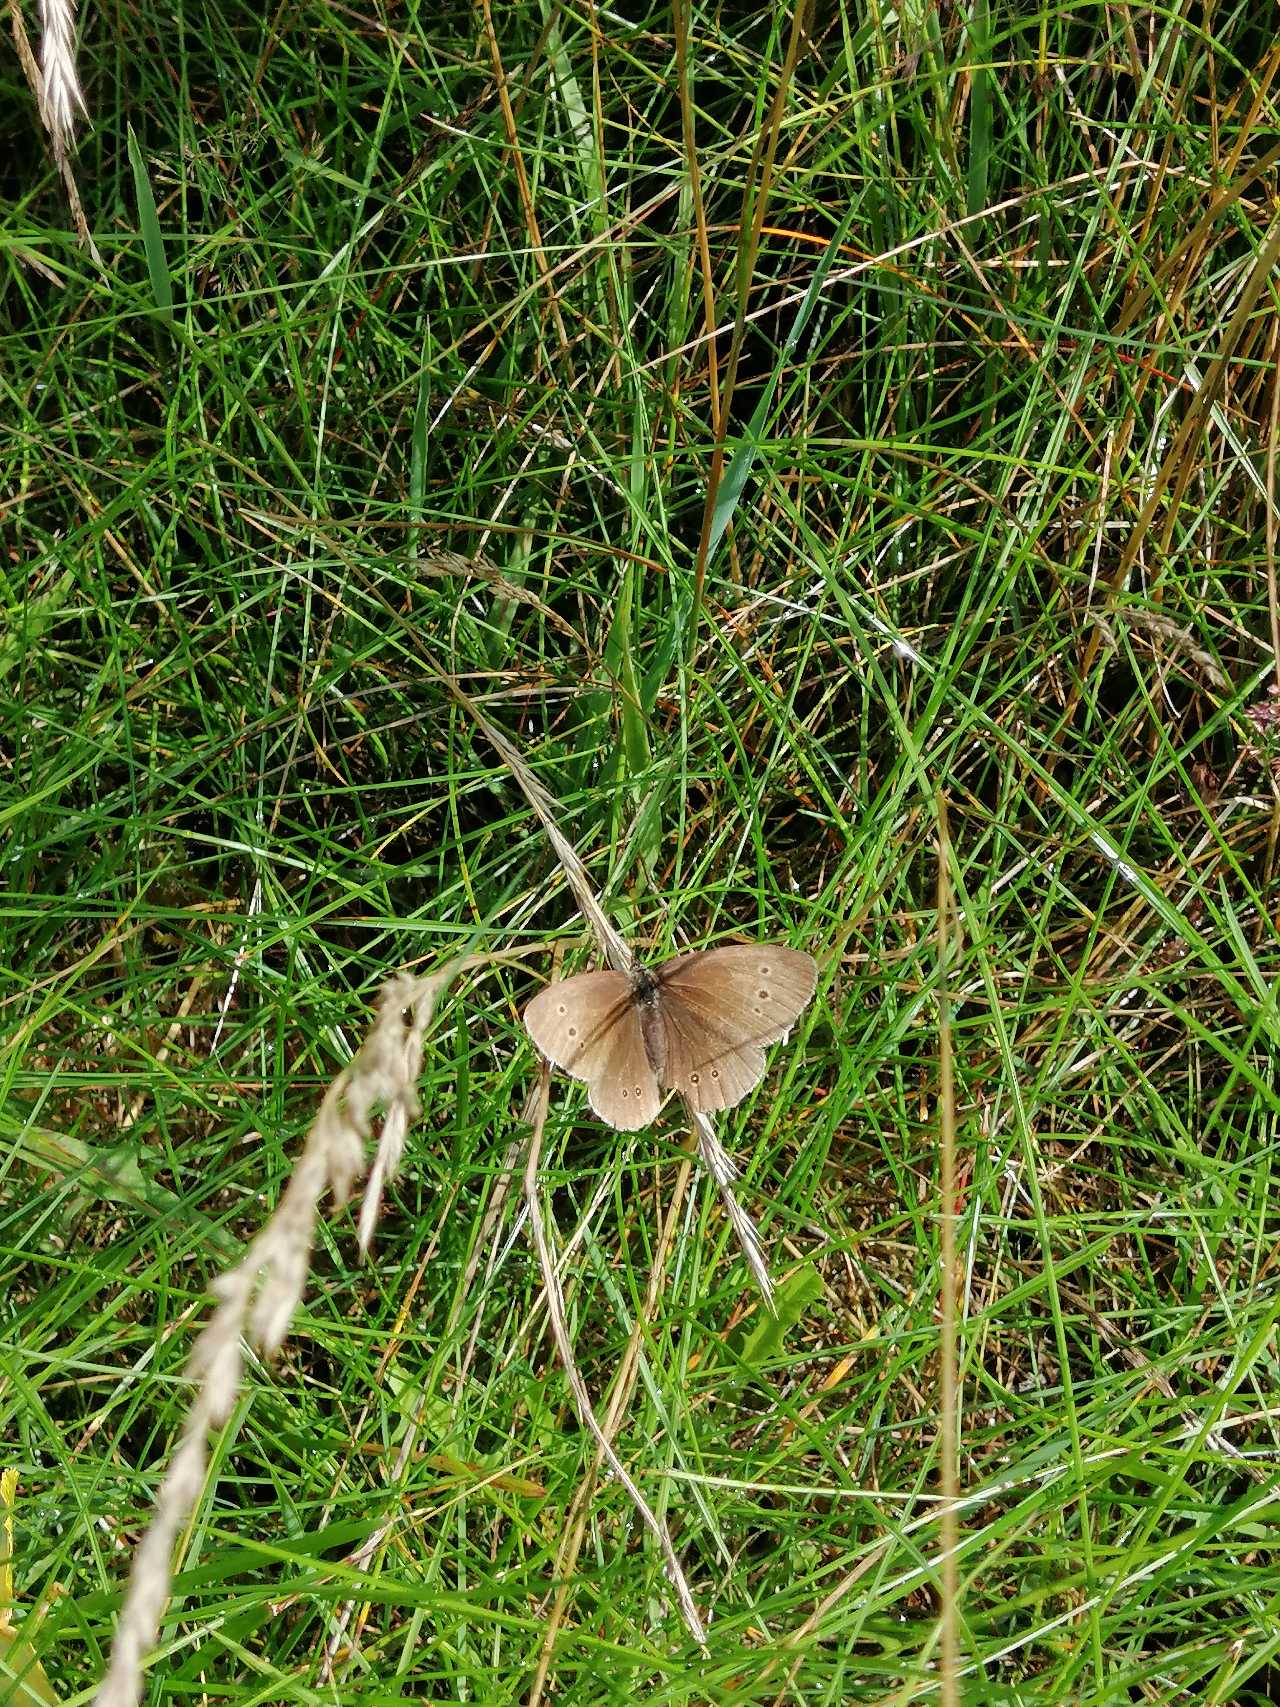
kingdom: Animalia
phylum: Arthropoda
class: Insecta
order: Lepidoptera
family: Nymphalidae
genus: Aphantopus
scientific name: Aphantopus hyperantus
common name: Engrandøje
